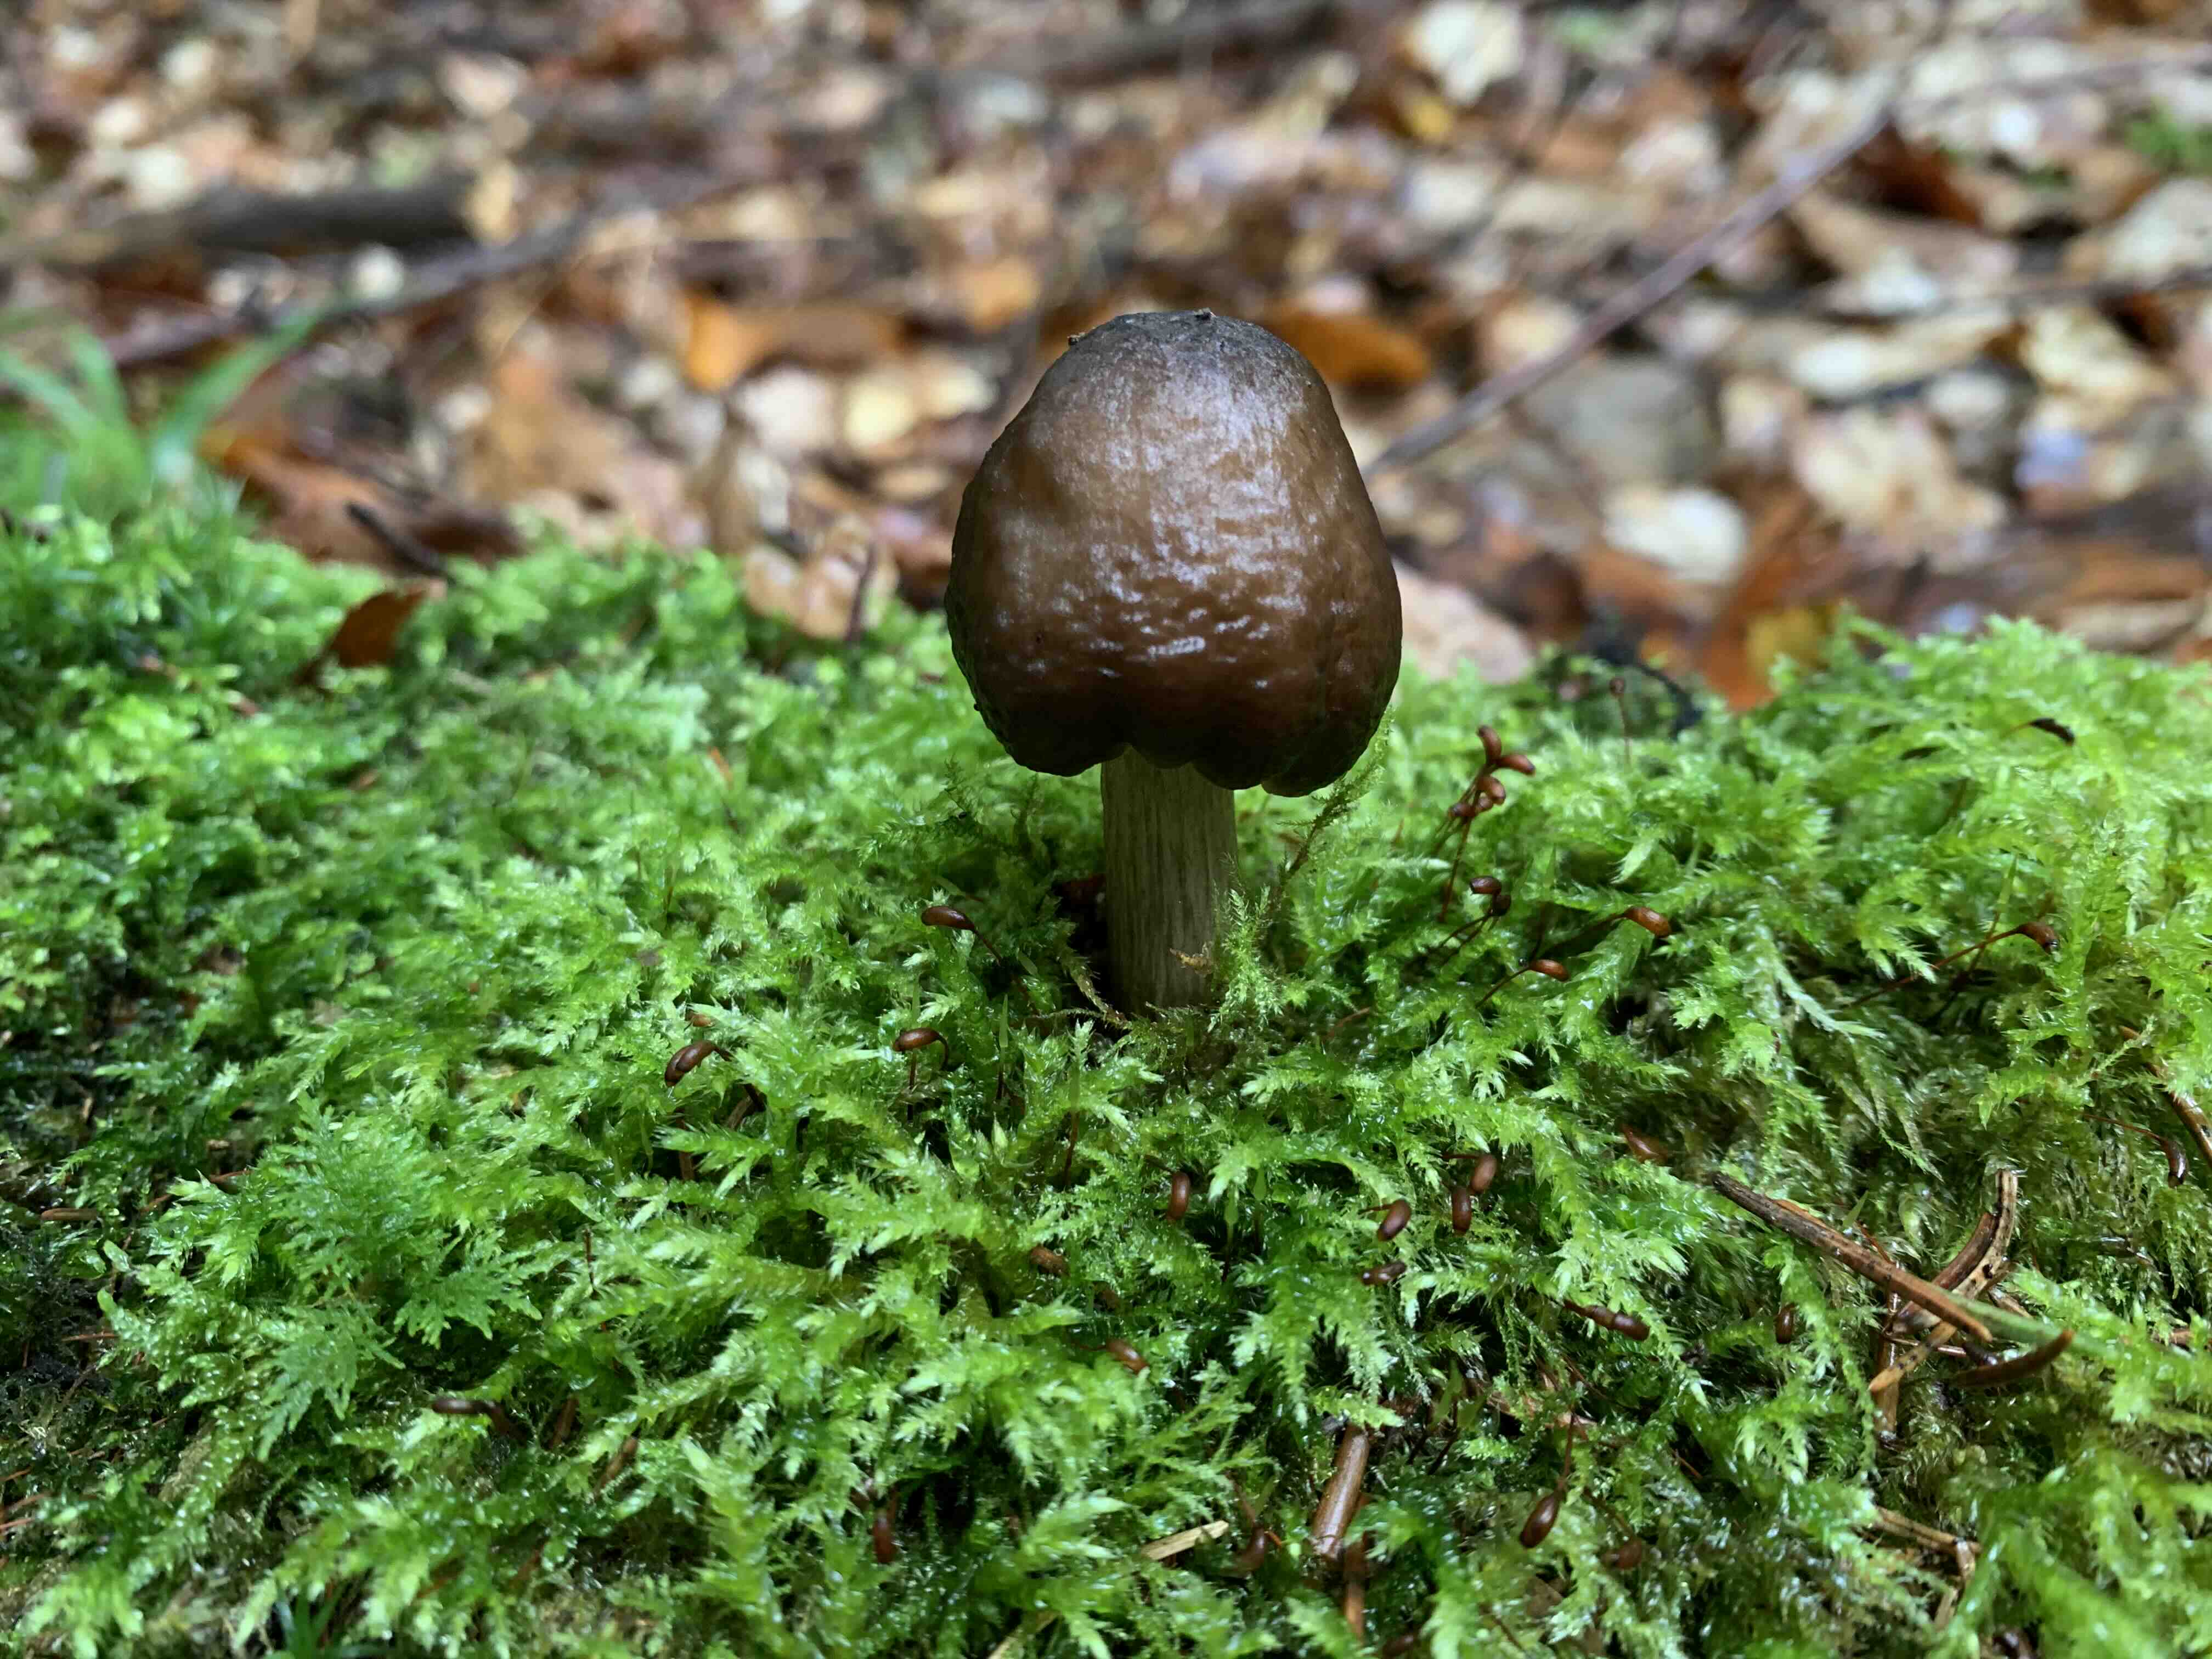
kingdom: Fungi
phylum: Basidiomycota
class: Agaricomycetes
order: Agaricales
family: Pluteaceae
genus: Pluteus
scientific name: Pluteus cervinus
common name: sodfarvet skærmhat
